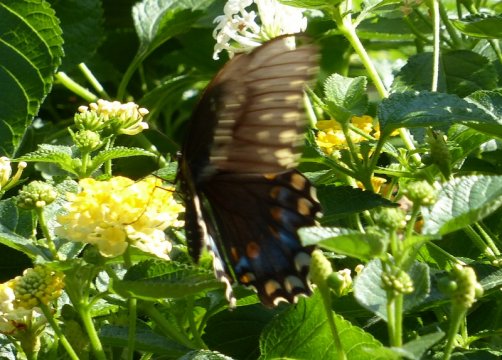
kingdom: Animalia
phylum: Arthropoda
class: Insecta
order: Lepidoptera
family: Papilionidae
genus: Pterourus
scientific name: Pterourus troilus
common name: Spicebush Swallowtail
